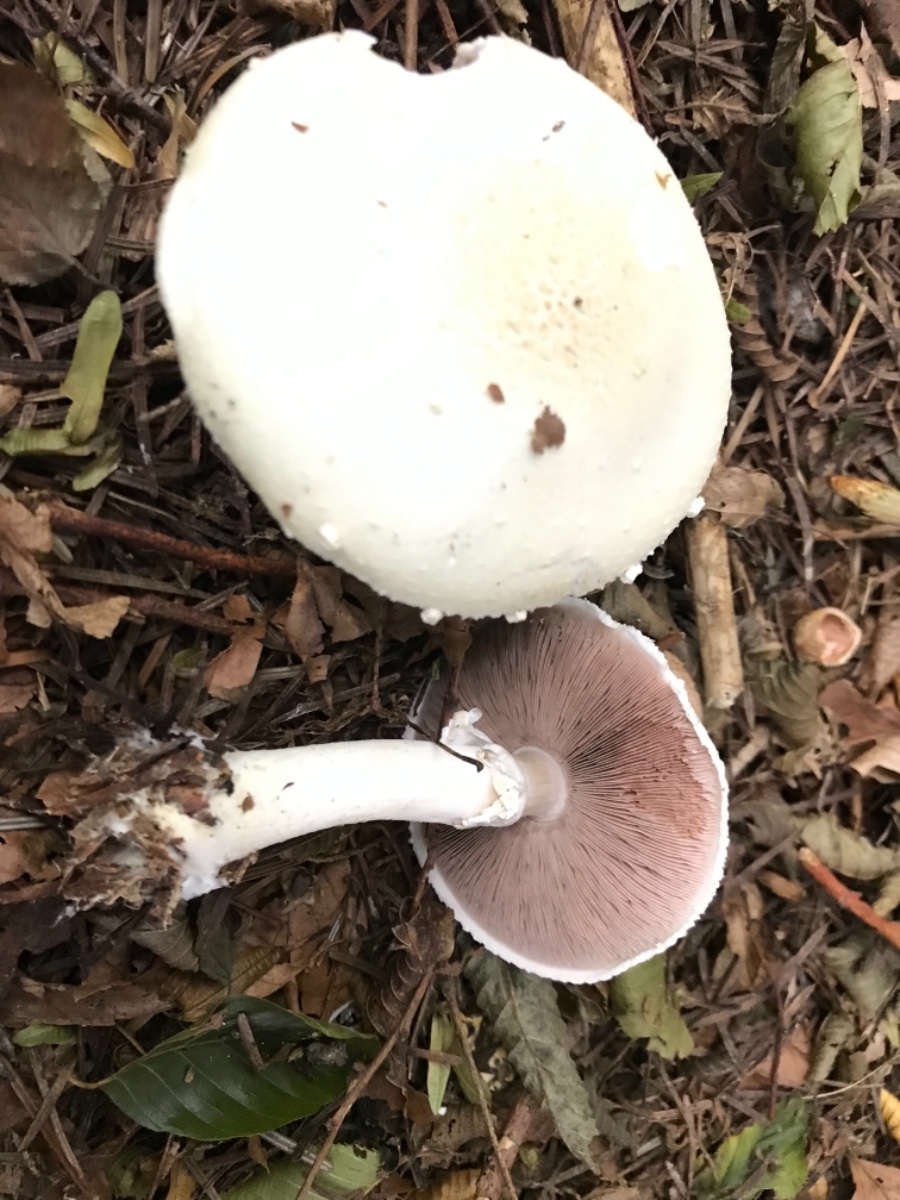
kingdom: Fungi
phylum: Basidiomycota
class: Agaricomycetes
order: Agaricales
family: Agaricaceae
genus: Agaricus
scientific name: Agaricus
